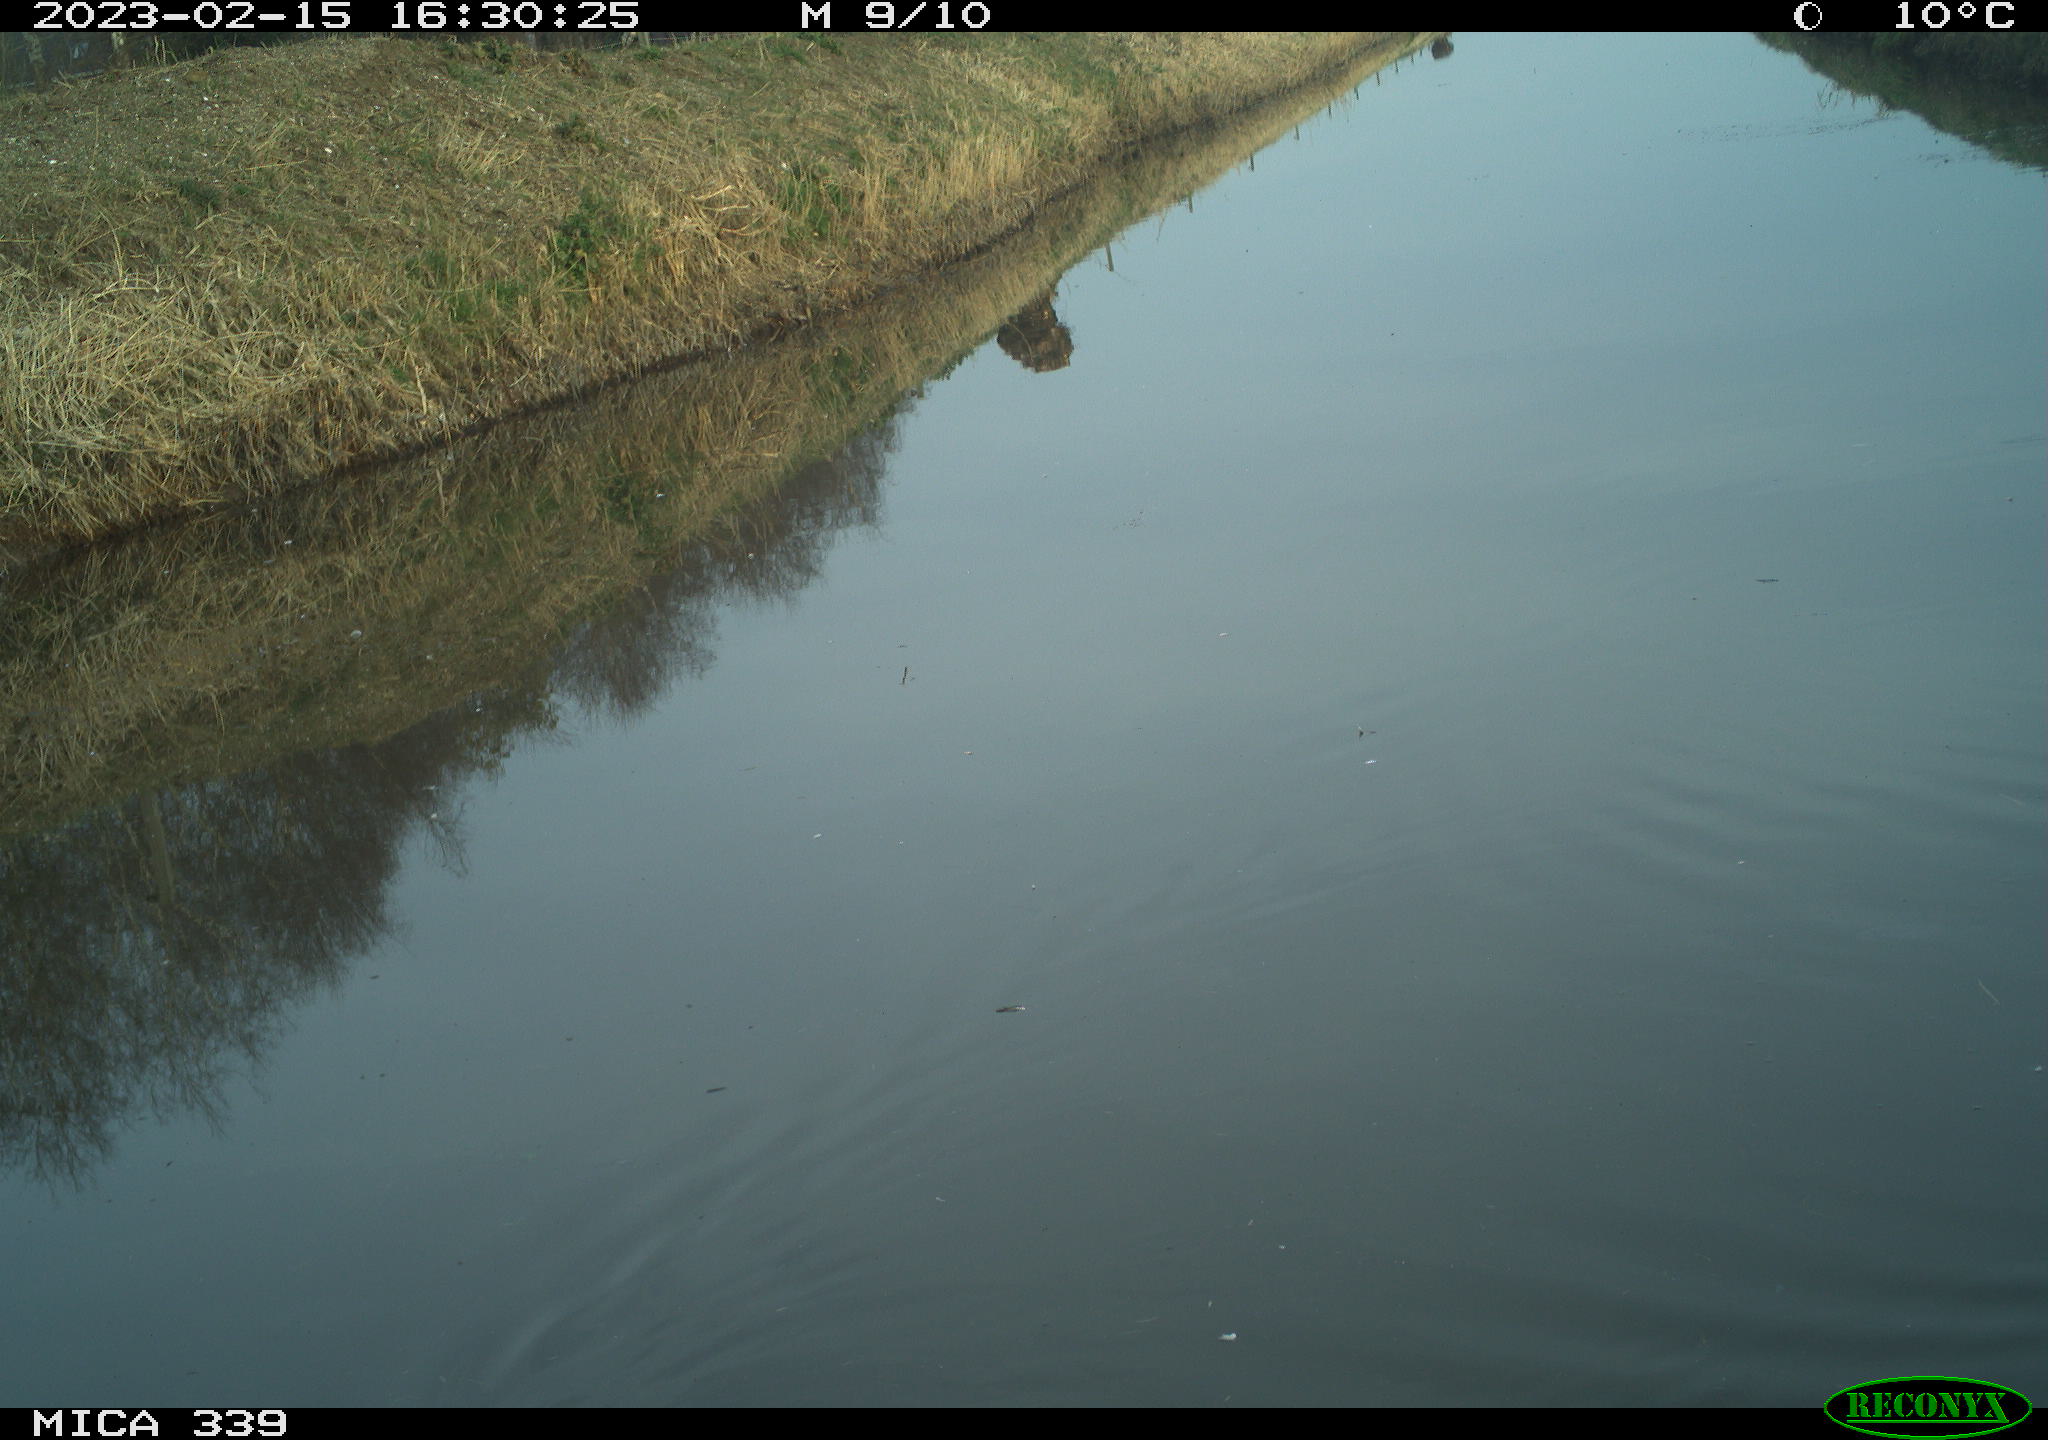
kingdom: Animalia
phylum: Chordata
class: Aves
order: Gruiformes
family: Rallidae
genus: Gallinula
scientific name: Gallinula chloropus
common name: Common moorhen
